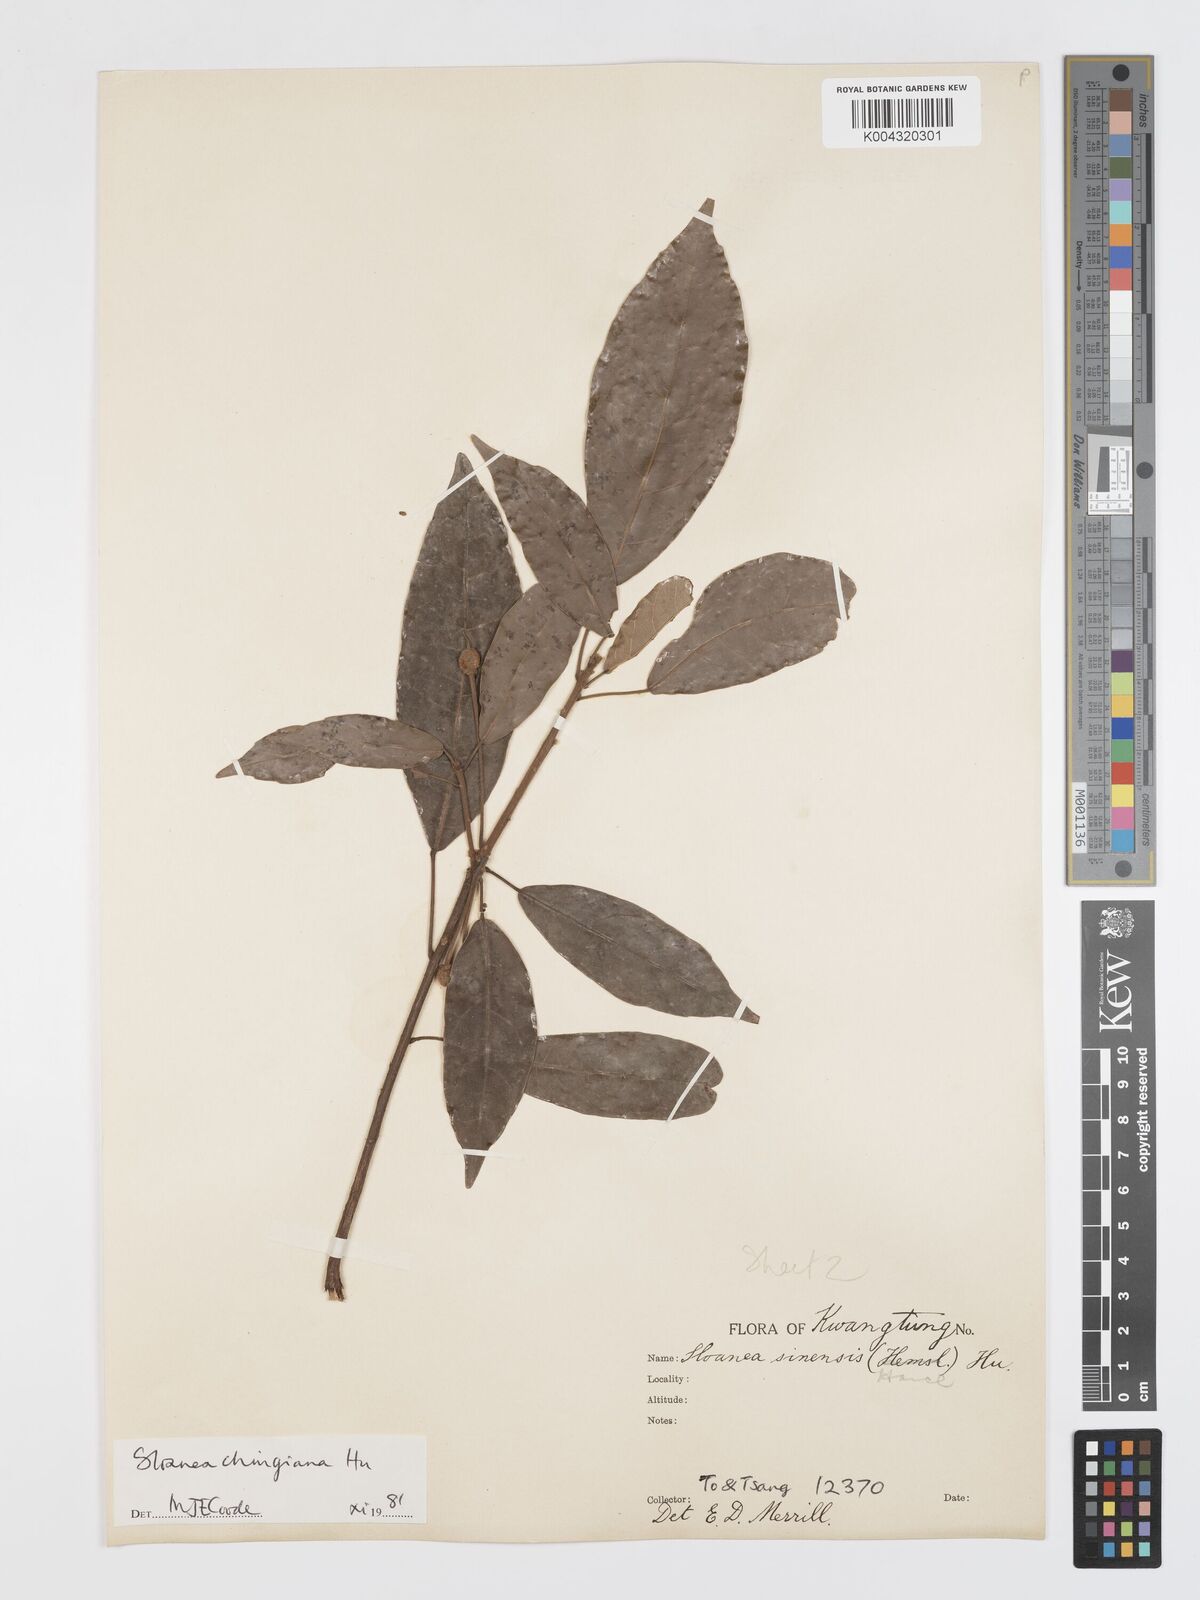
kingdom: Plantae
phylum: Tracheophyta
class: Magnoliopsida
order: Oxalidales
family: Elaeocarpaceae
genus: Sloanea
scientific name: Sloanea chingiana
